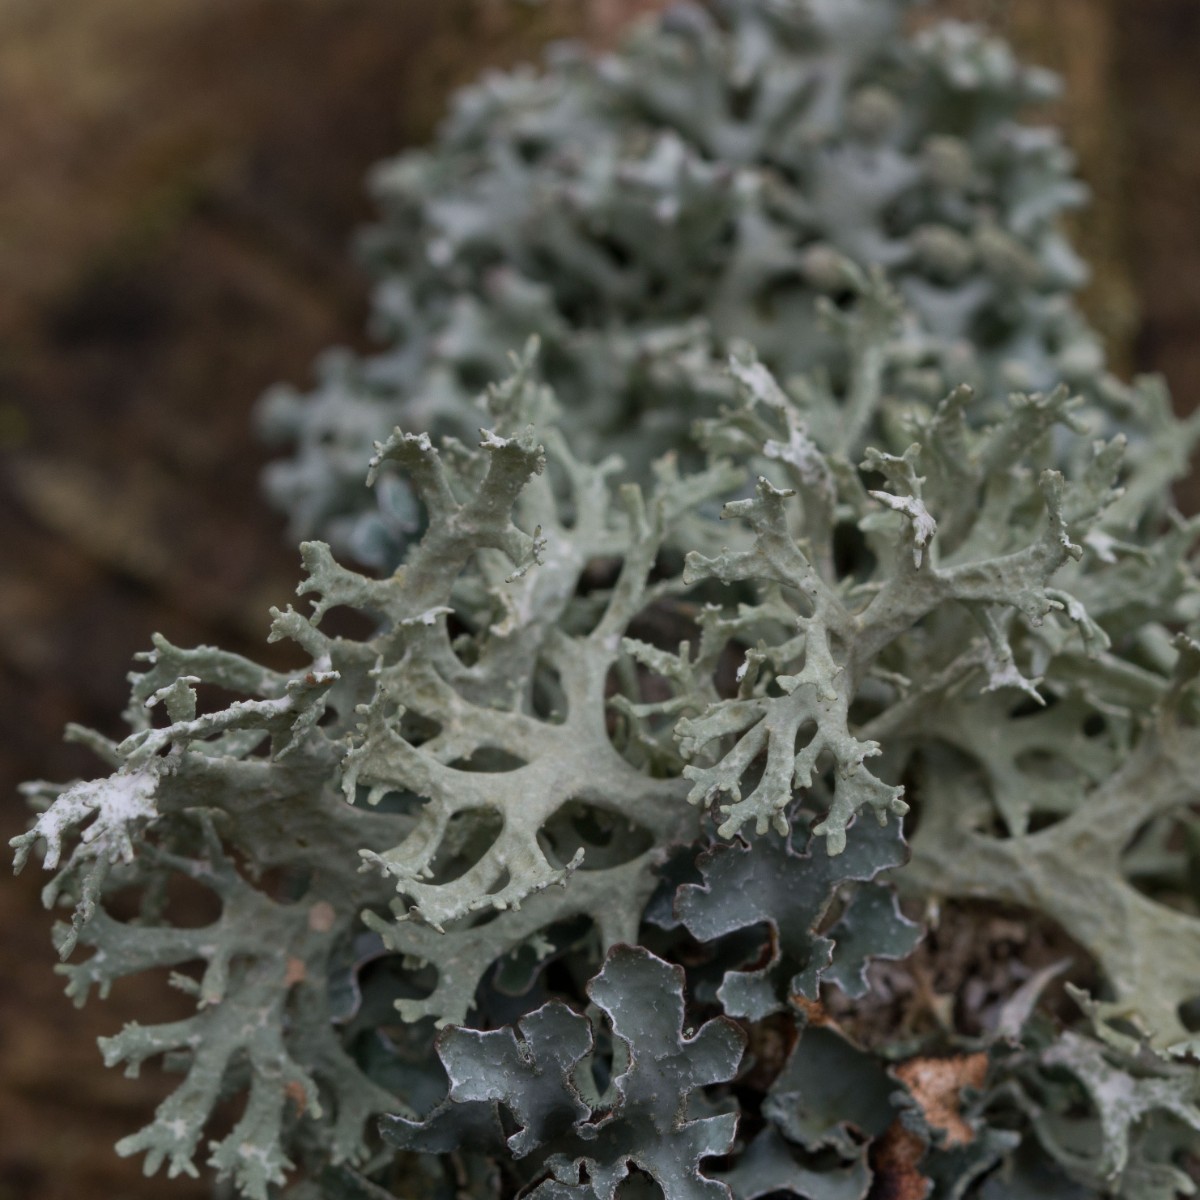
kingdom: Fungi
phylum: Ascomycota
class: Lecanoromycetes
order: Lecanorales
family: Parmeliaceae
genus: Evernia
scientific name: Evernia prunastri
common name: almindelig slåenlav
